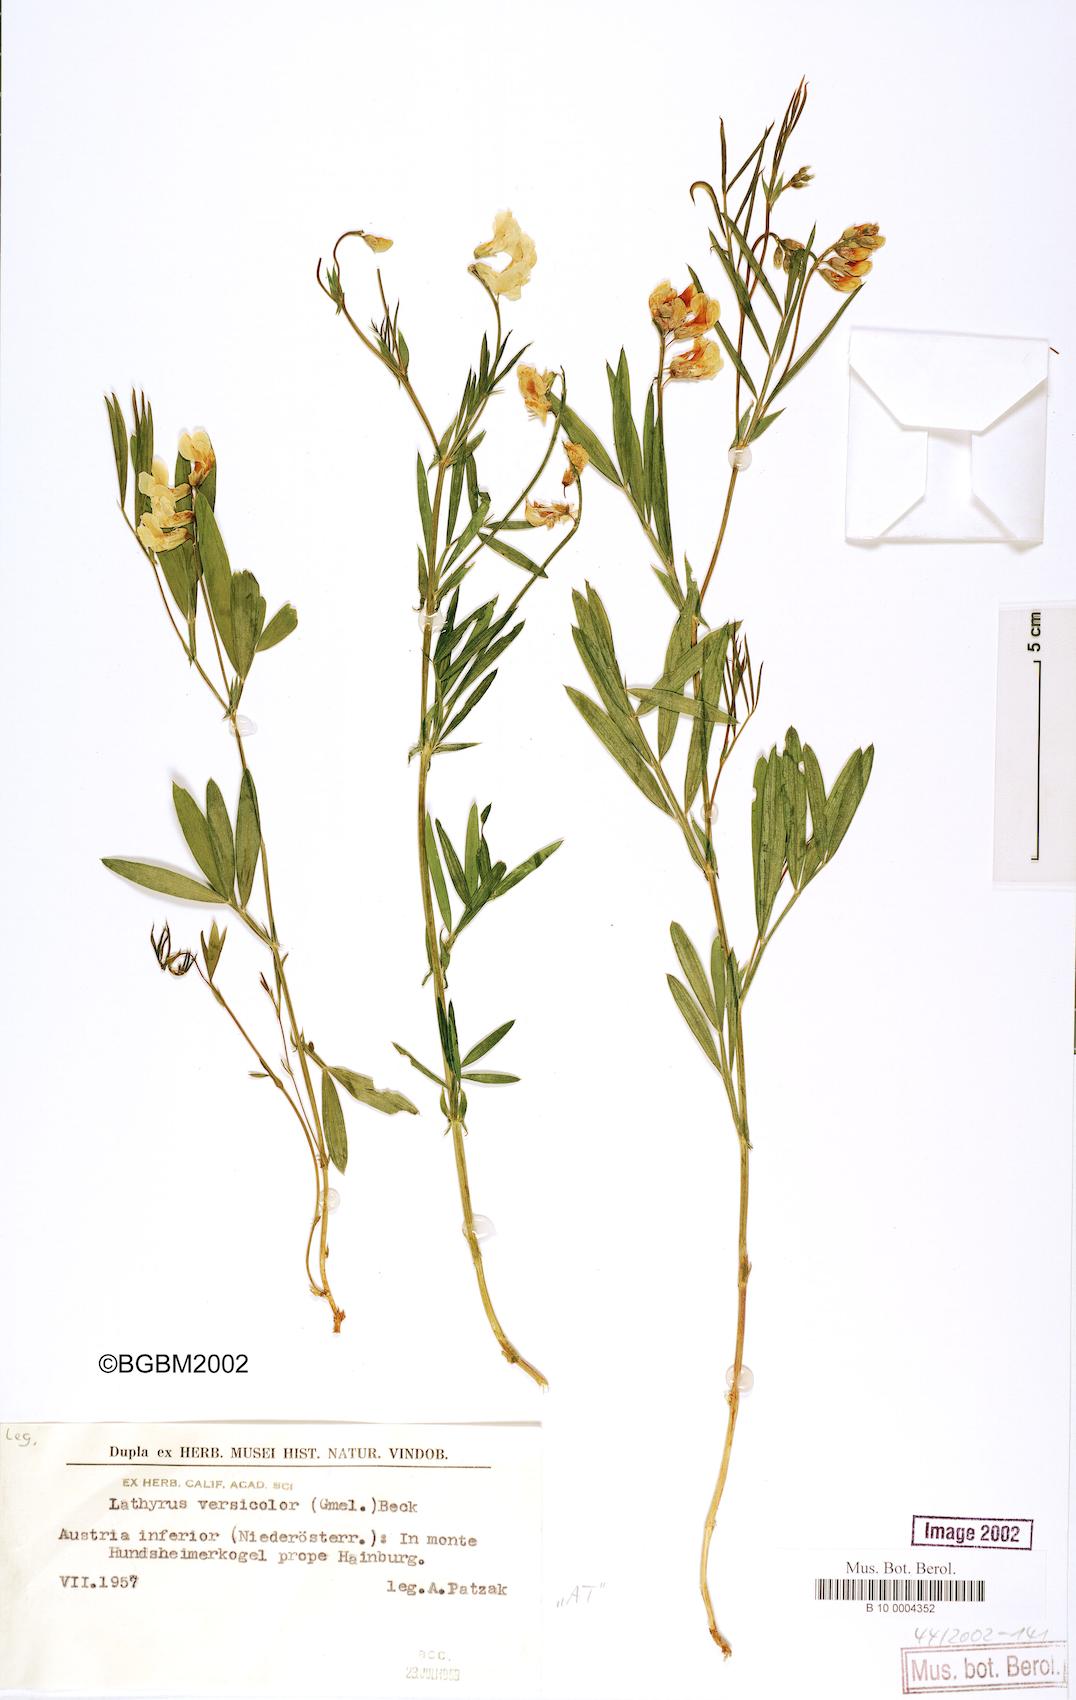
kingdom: Plantae
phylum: Tracheophyta
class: Magnoliopsida
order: Fabales
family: Fabaceae
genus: Lathyrus
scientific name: Lathyrus pannonicus
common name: Pea
